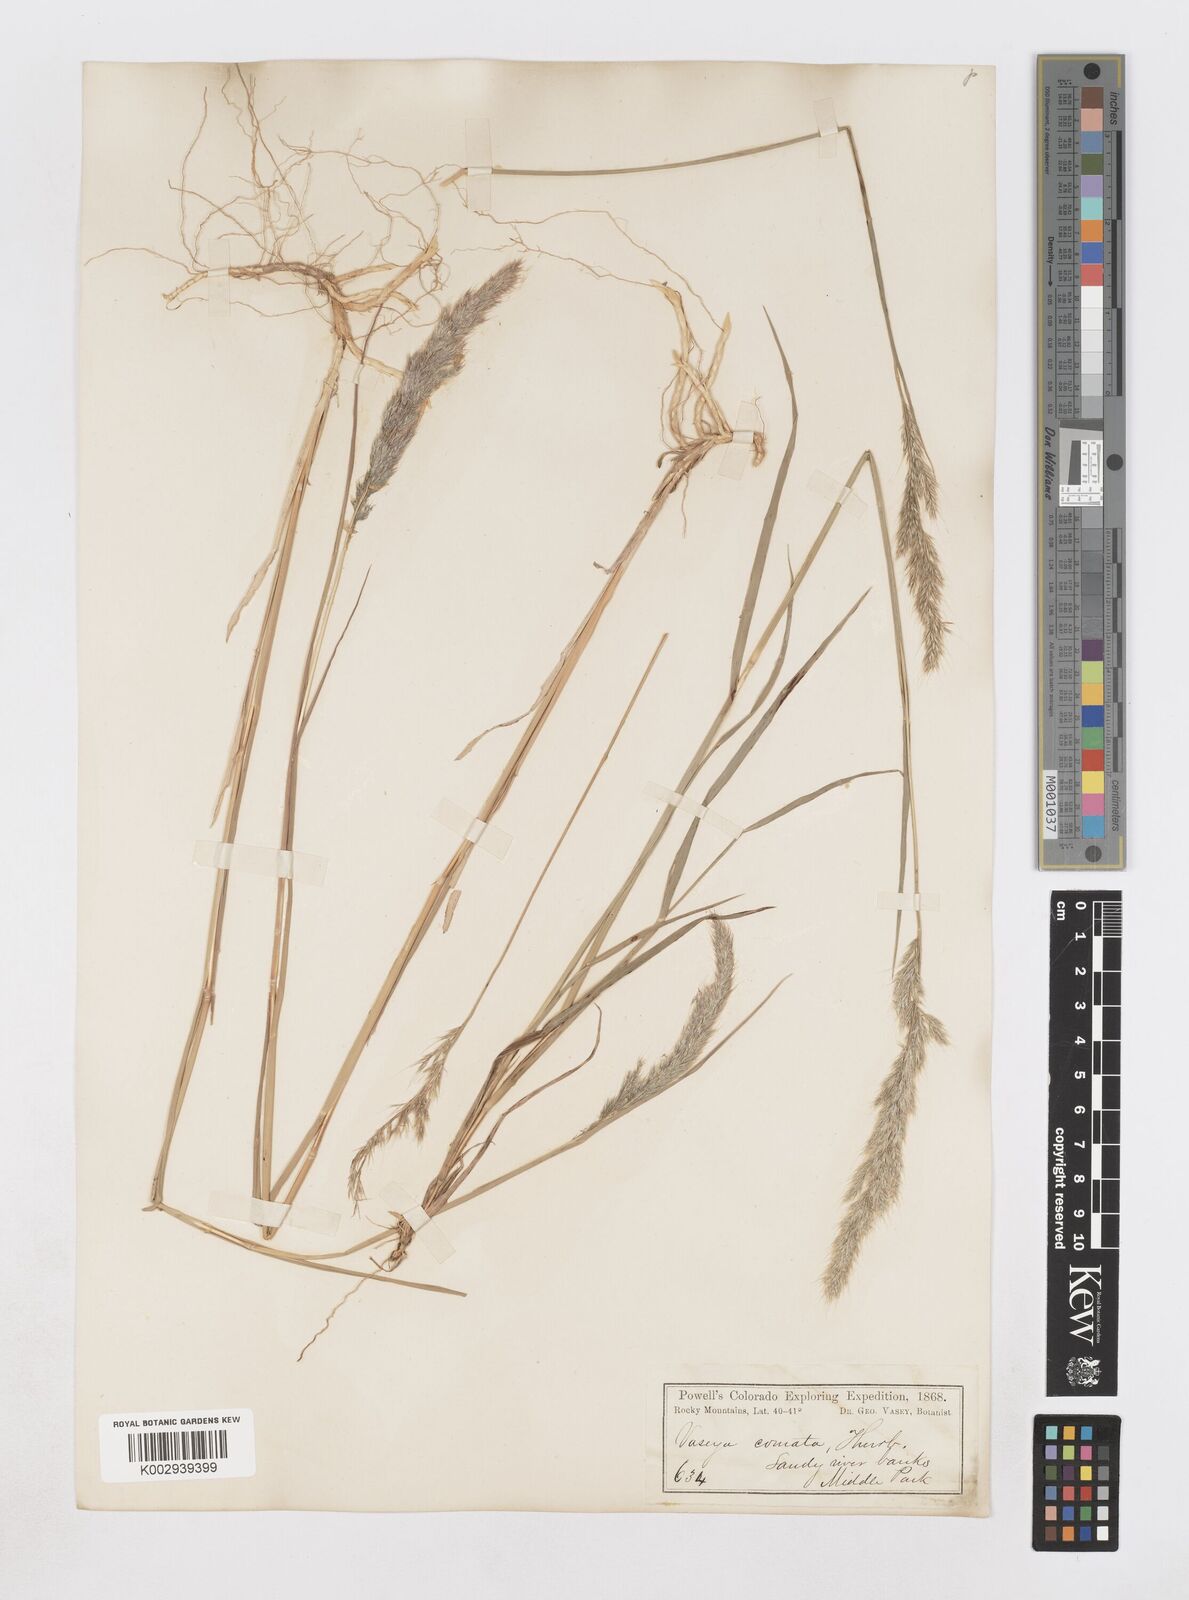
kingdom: Plantae
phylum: Tracheophyta
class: Liliopsida
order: Poales
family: Poaceae
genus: Muhlenbergia
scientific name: Muhlenbergia andina
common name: Foxtail muhly
